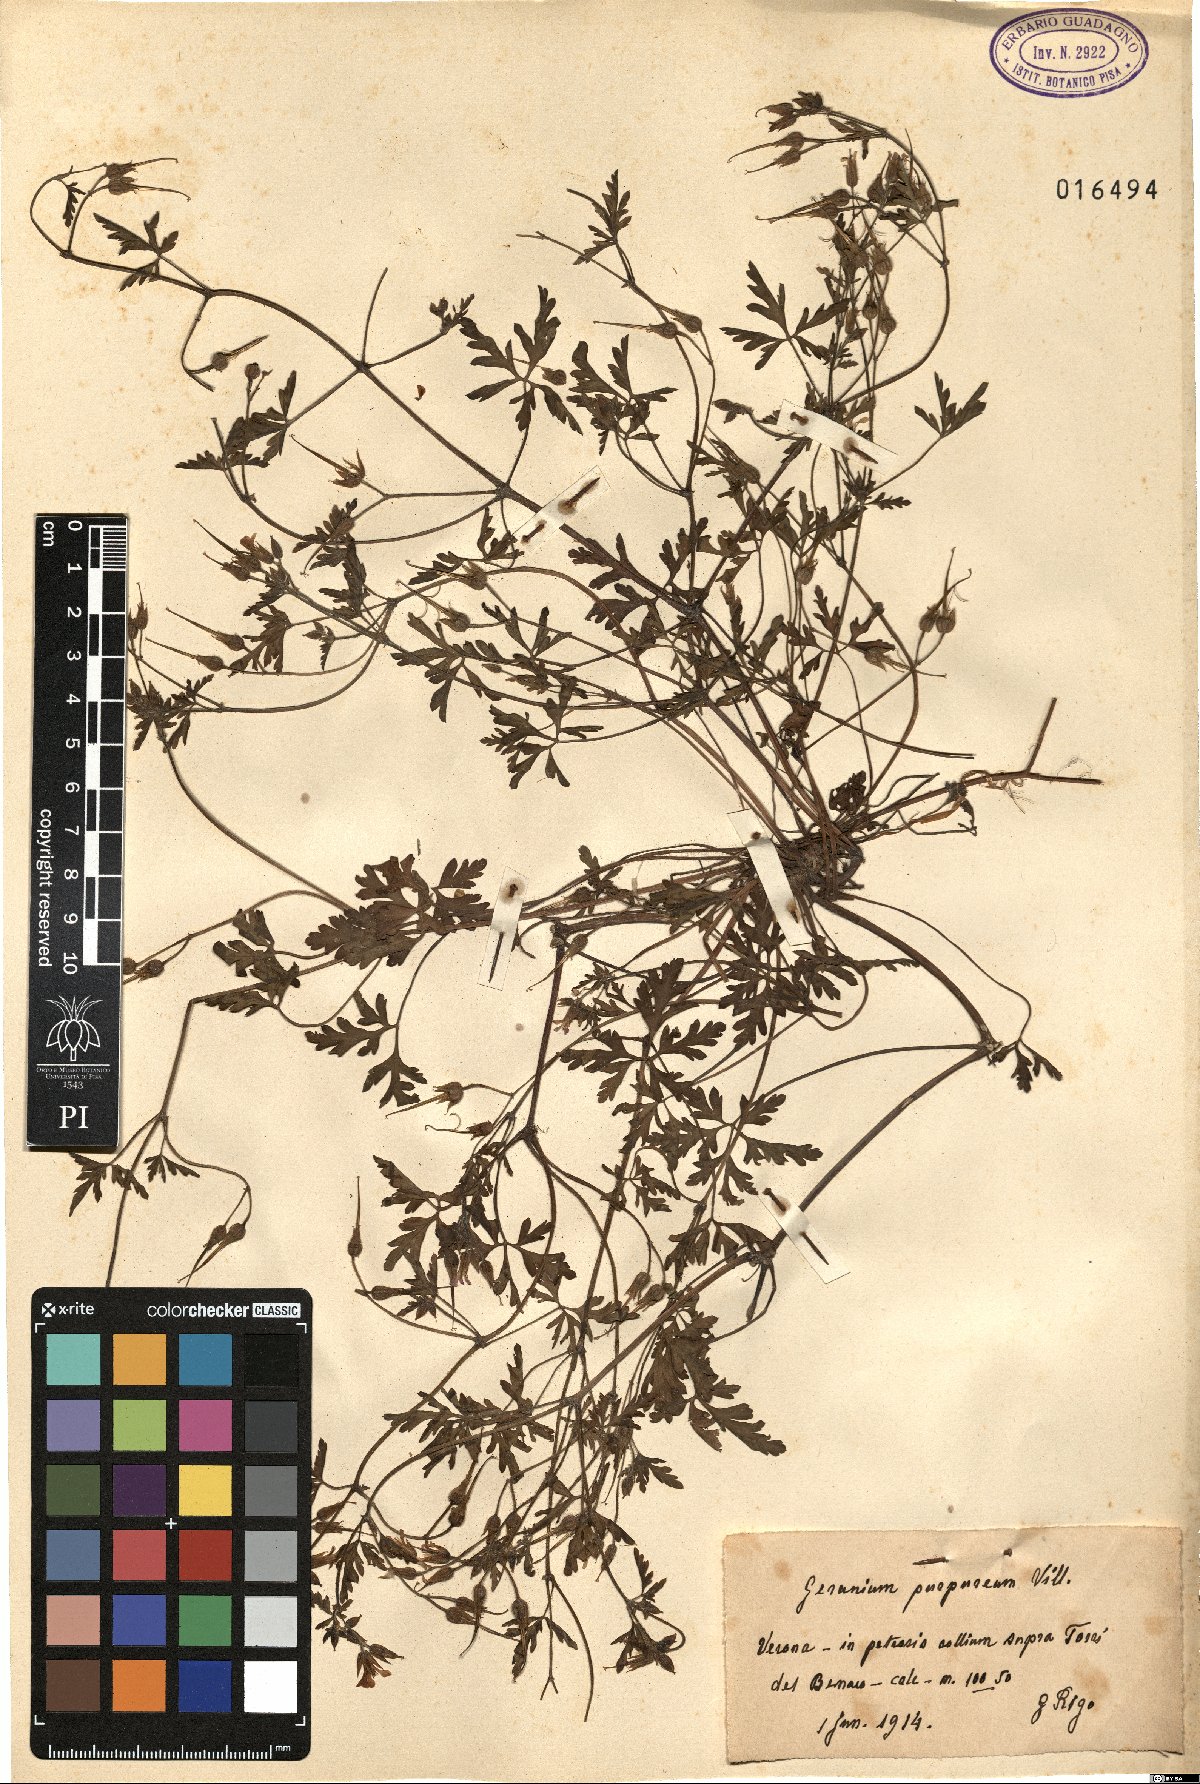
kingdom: Plantae
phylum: Tracheophyta
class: Magnoliopsida
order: Geraniales
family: Geraniaceae
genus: Geranium
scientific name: Geranium purpureum
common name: Little-robin
